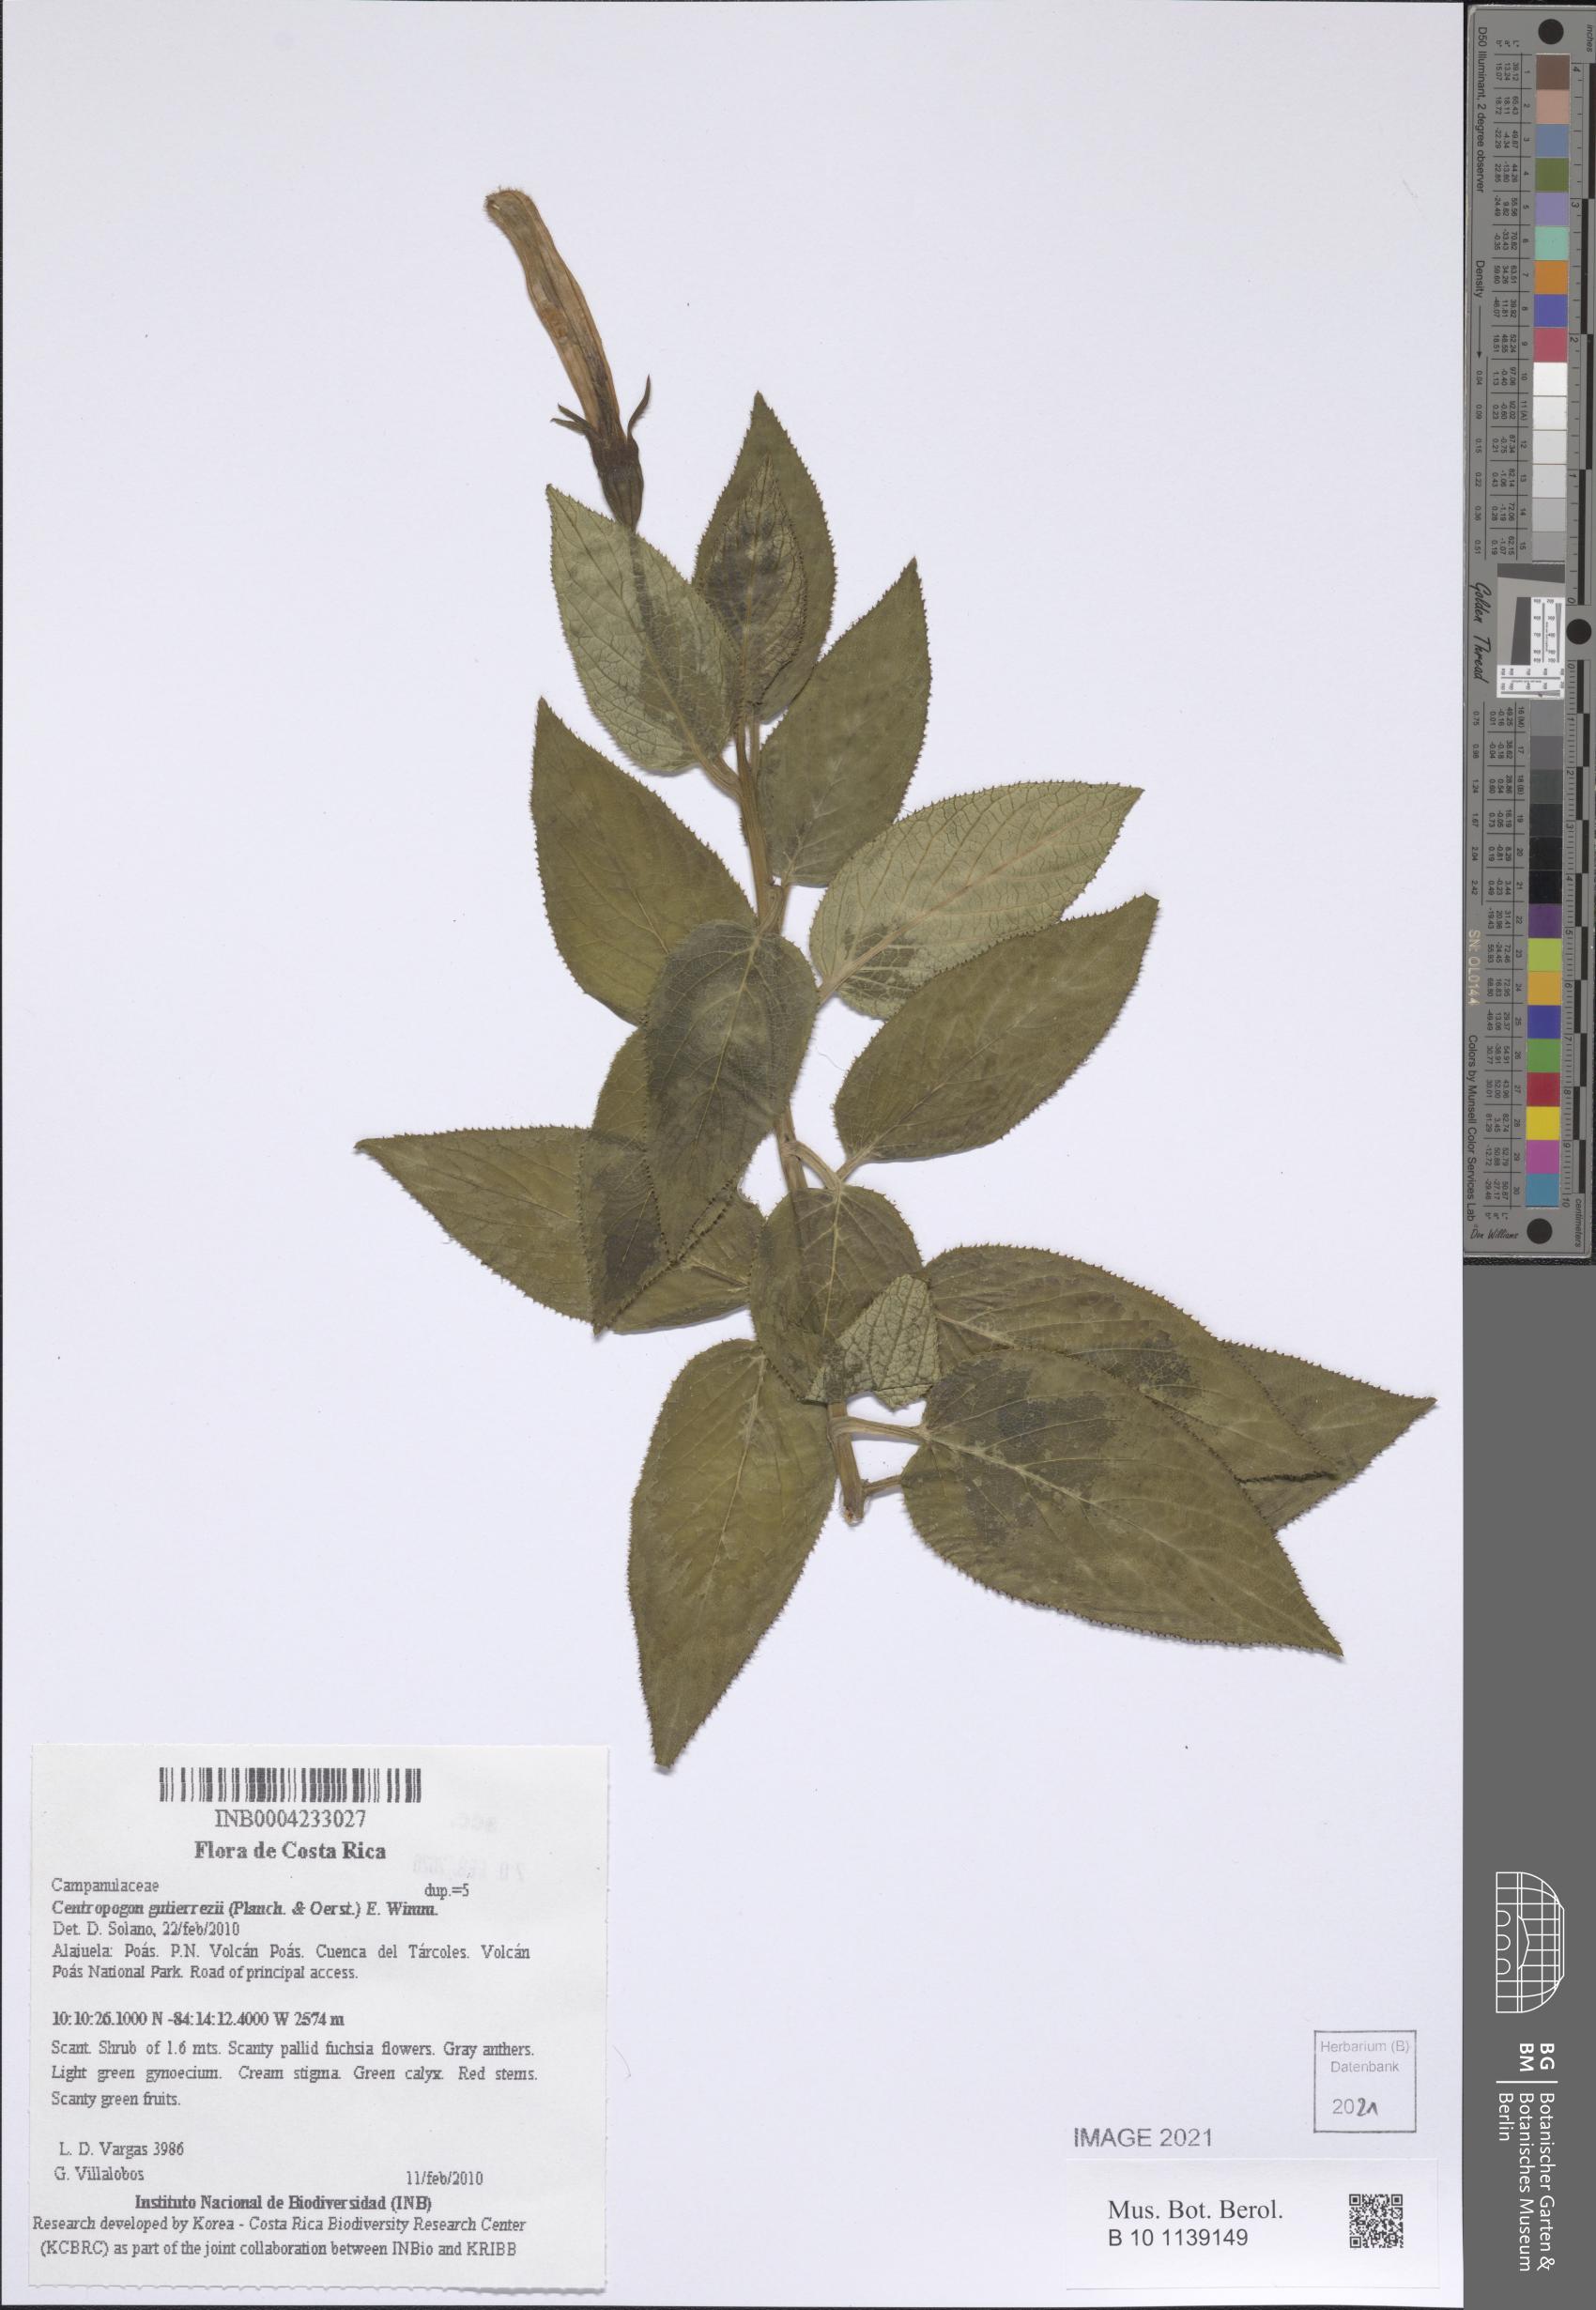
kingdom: Plantae
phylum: Tracheophyta
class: Magnoliopsida
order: Asterales
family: Campanulaceae
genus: Centropogon
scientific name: Centropogon gutierrezii
